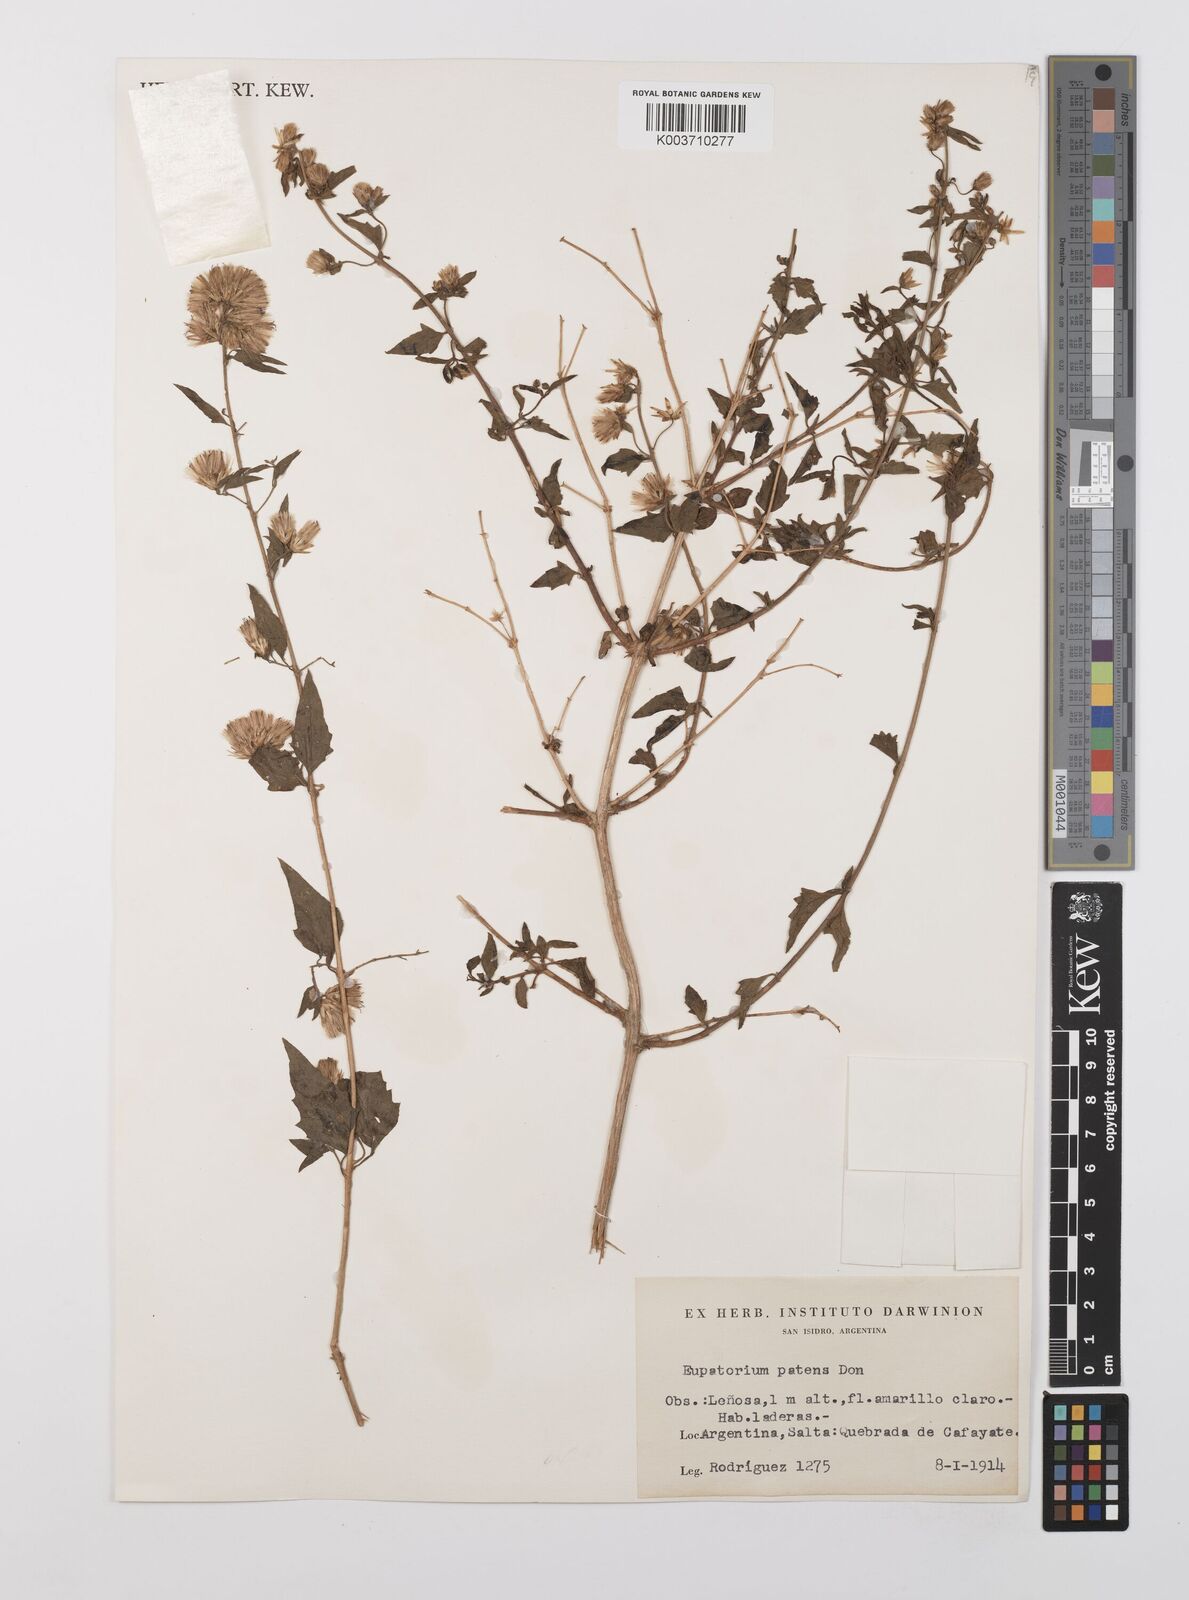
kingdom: Plantae
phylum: Tracheophyta
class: Magnoliopsida
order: Asterales
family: Asteraceae
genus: Austrobrickellia
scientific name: Austrobrickellia patens
